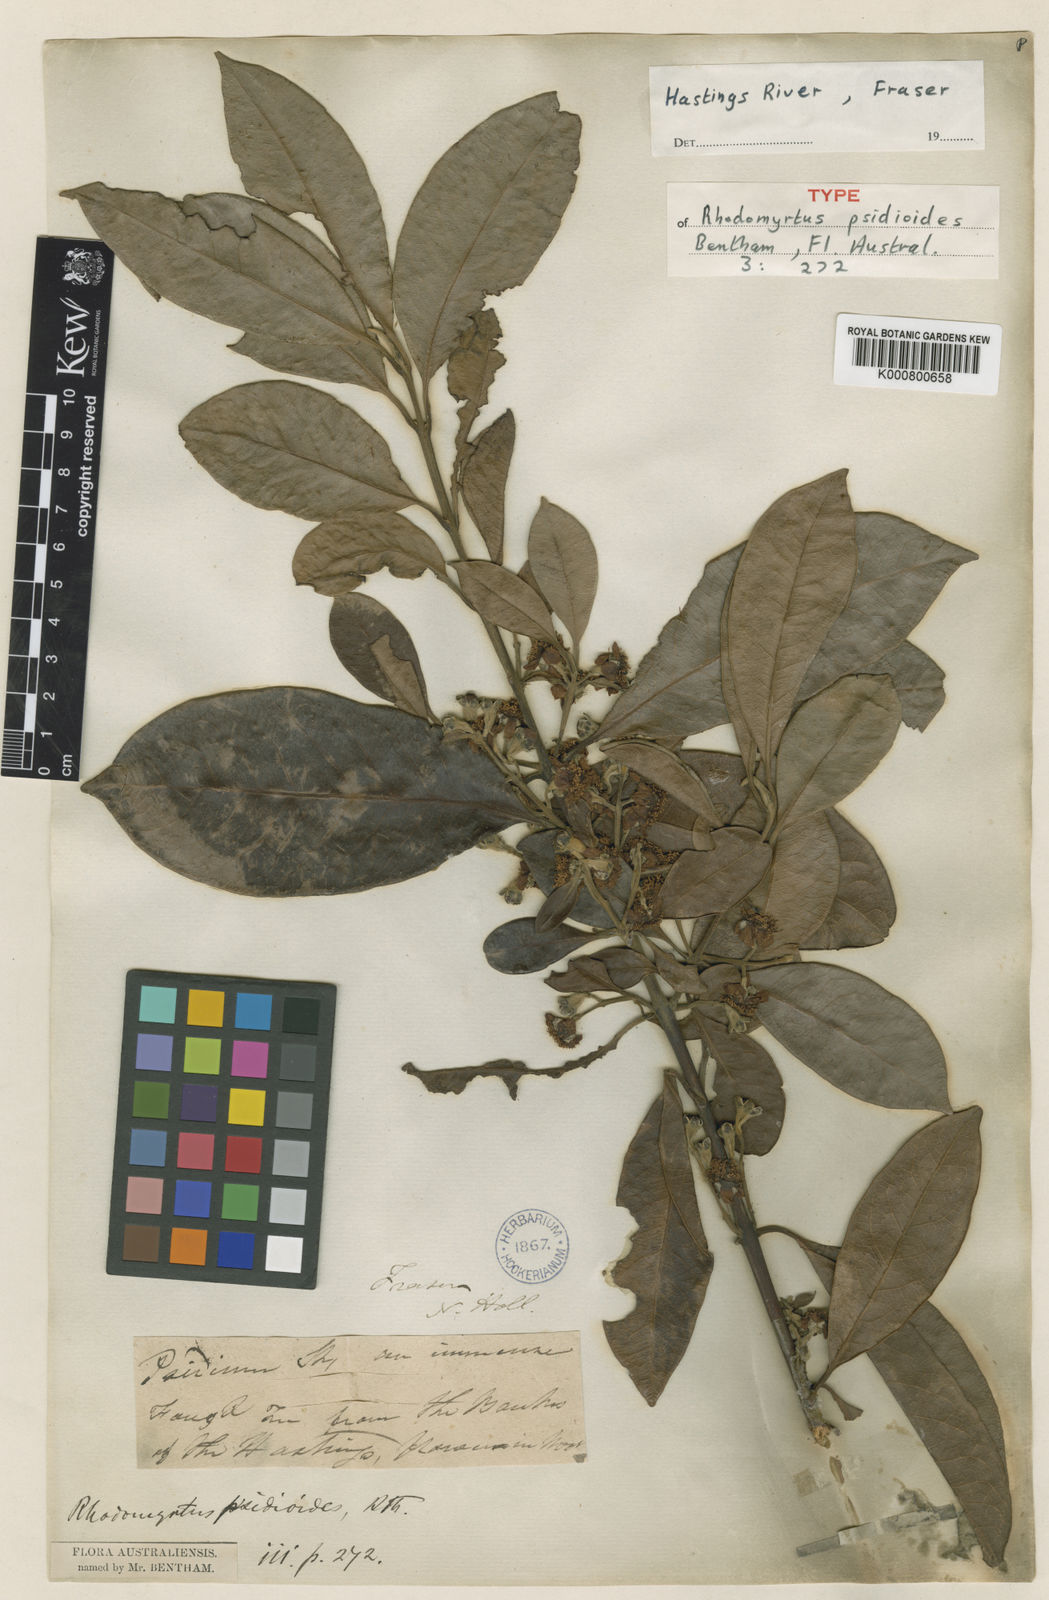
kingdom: Plantae
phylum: Tracheophyta
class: Magnoliopsida
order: Myrtales
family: Myrtaceae
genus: Rhodomyrtus
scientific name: Rhodomyrtus psidioides
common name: Native-guava
